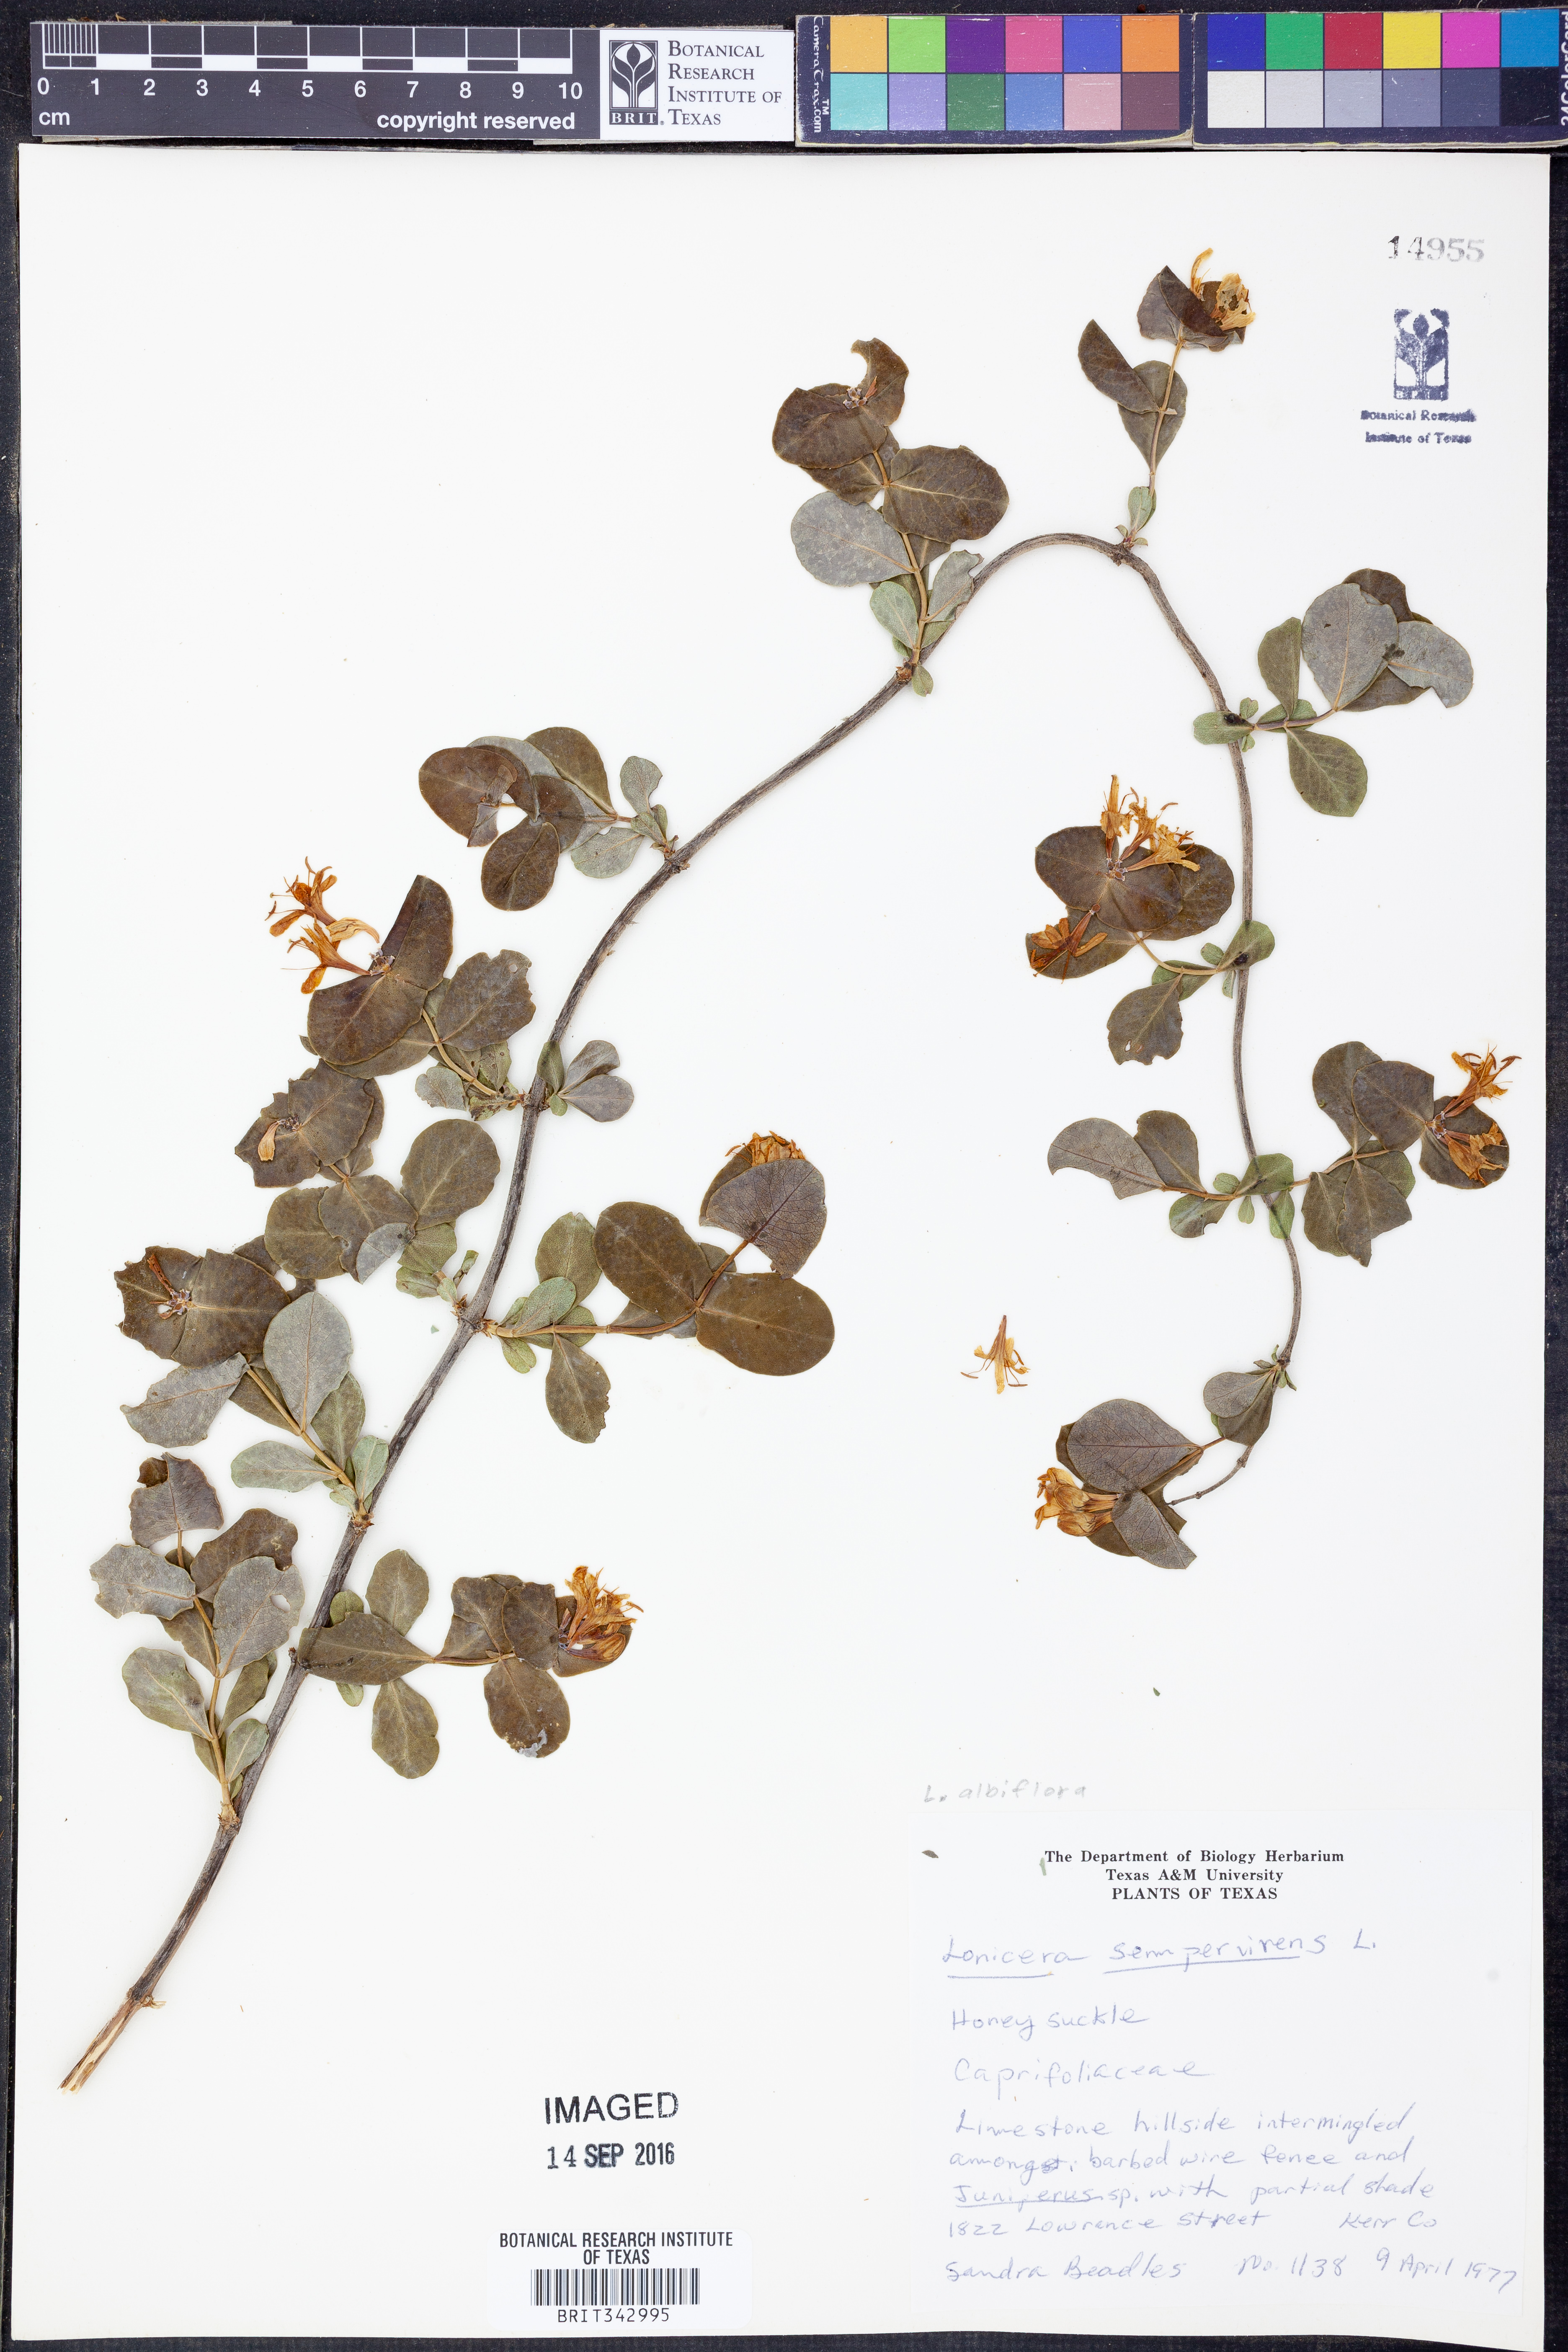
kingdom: Plantae
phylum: Tracheophyta
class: Magnoliopsida
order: Dipsacales
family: Caprifoliaceae
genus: Lonicera
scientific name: Lonicera sempervirens
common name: Coral honeysuckle
